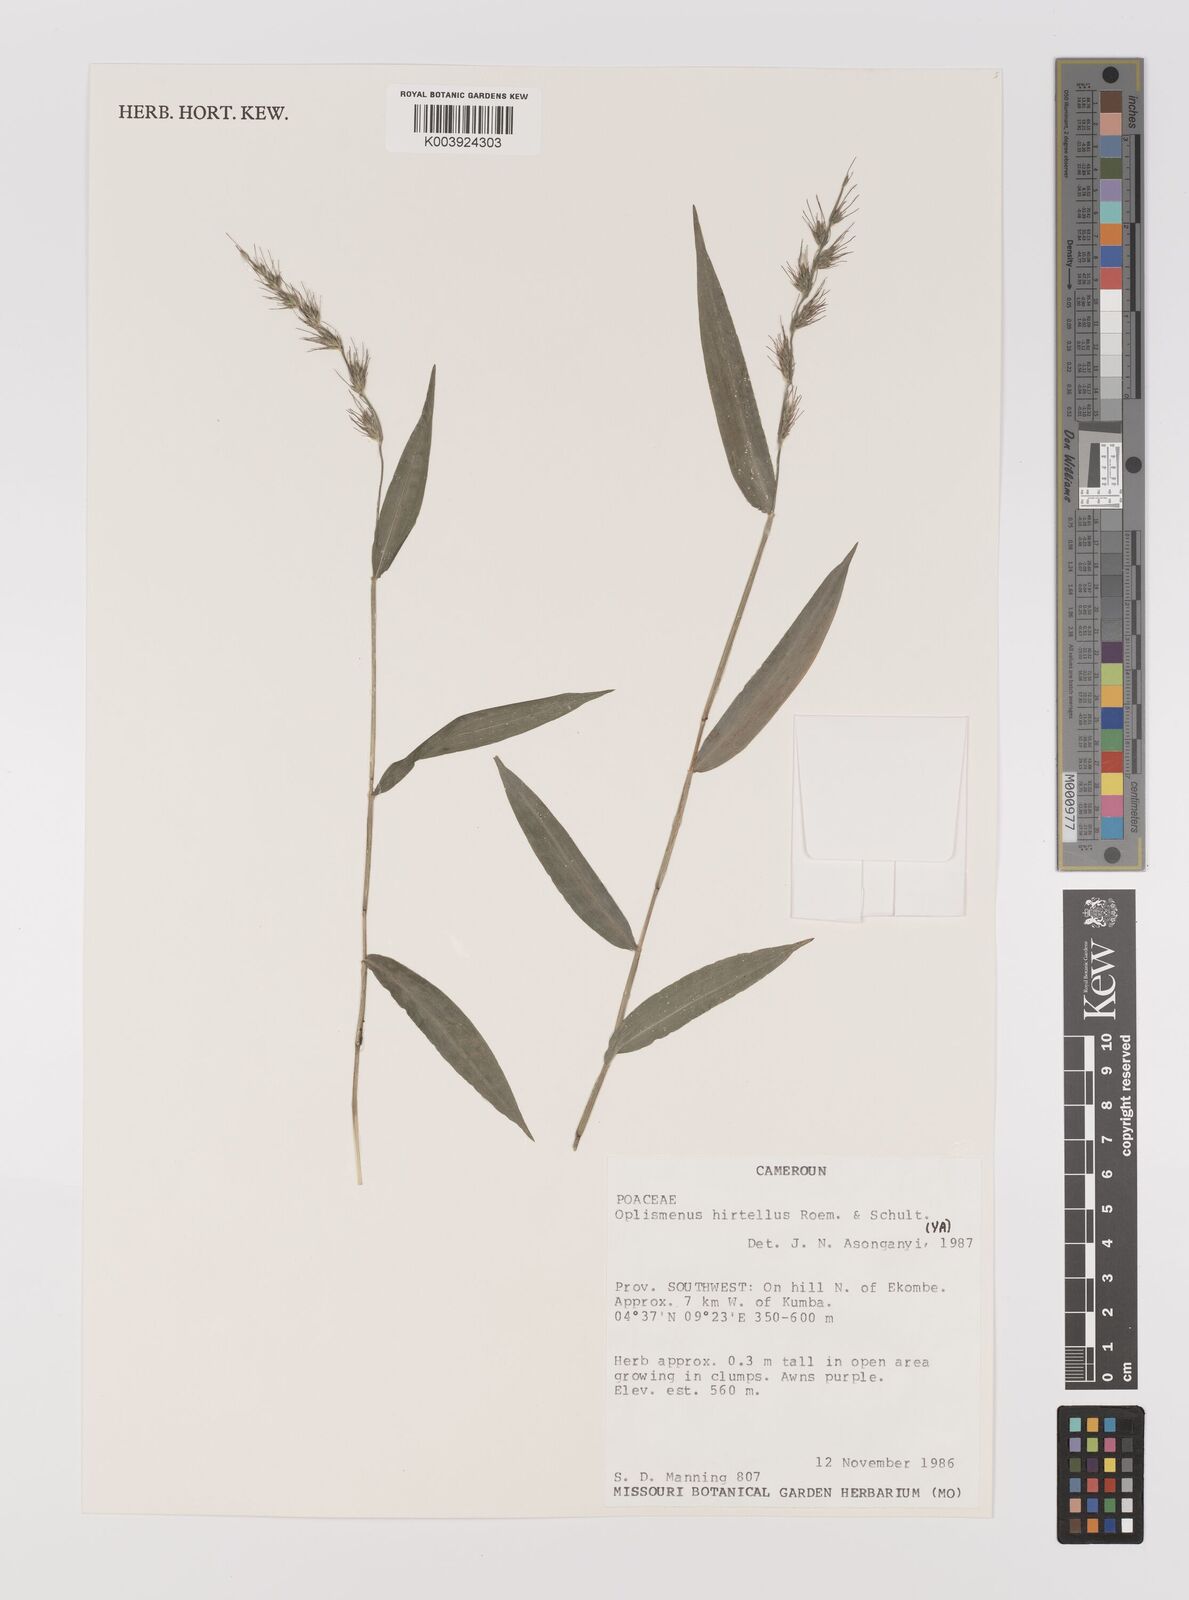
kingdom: Plantae
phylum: Tracheophyta
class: Liliopsida
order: Poales
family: Poaceae
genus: Oplismenus
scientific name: Oplismenus hirtellus
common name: Basketgrass
